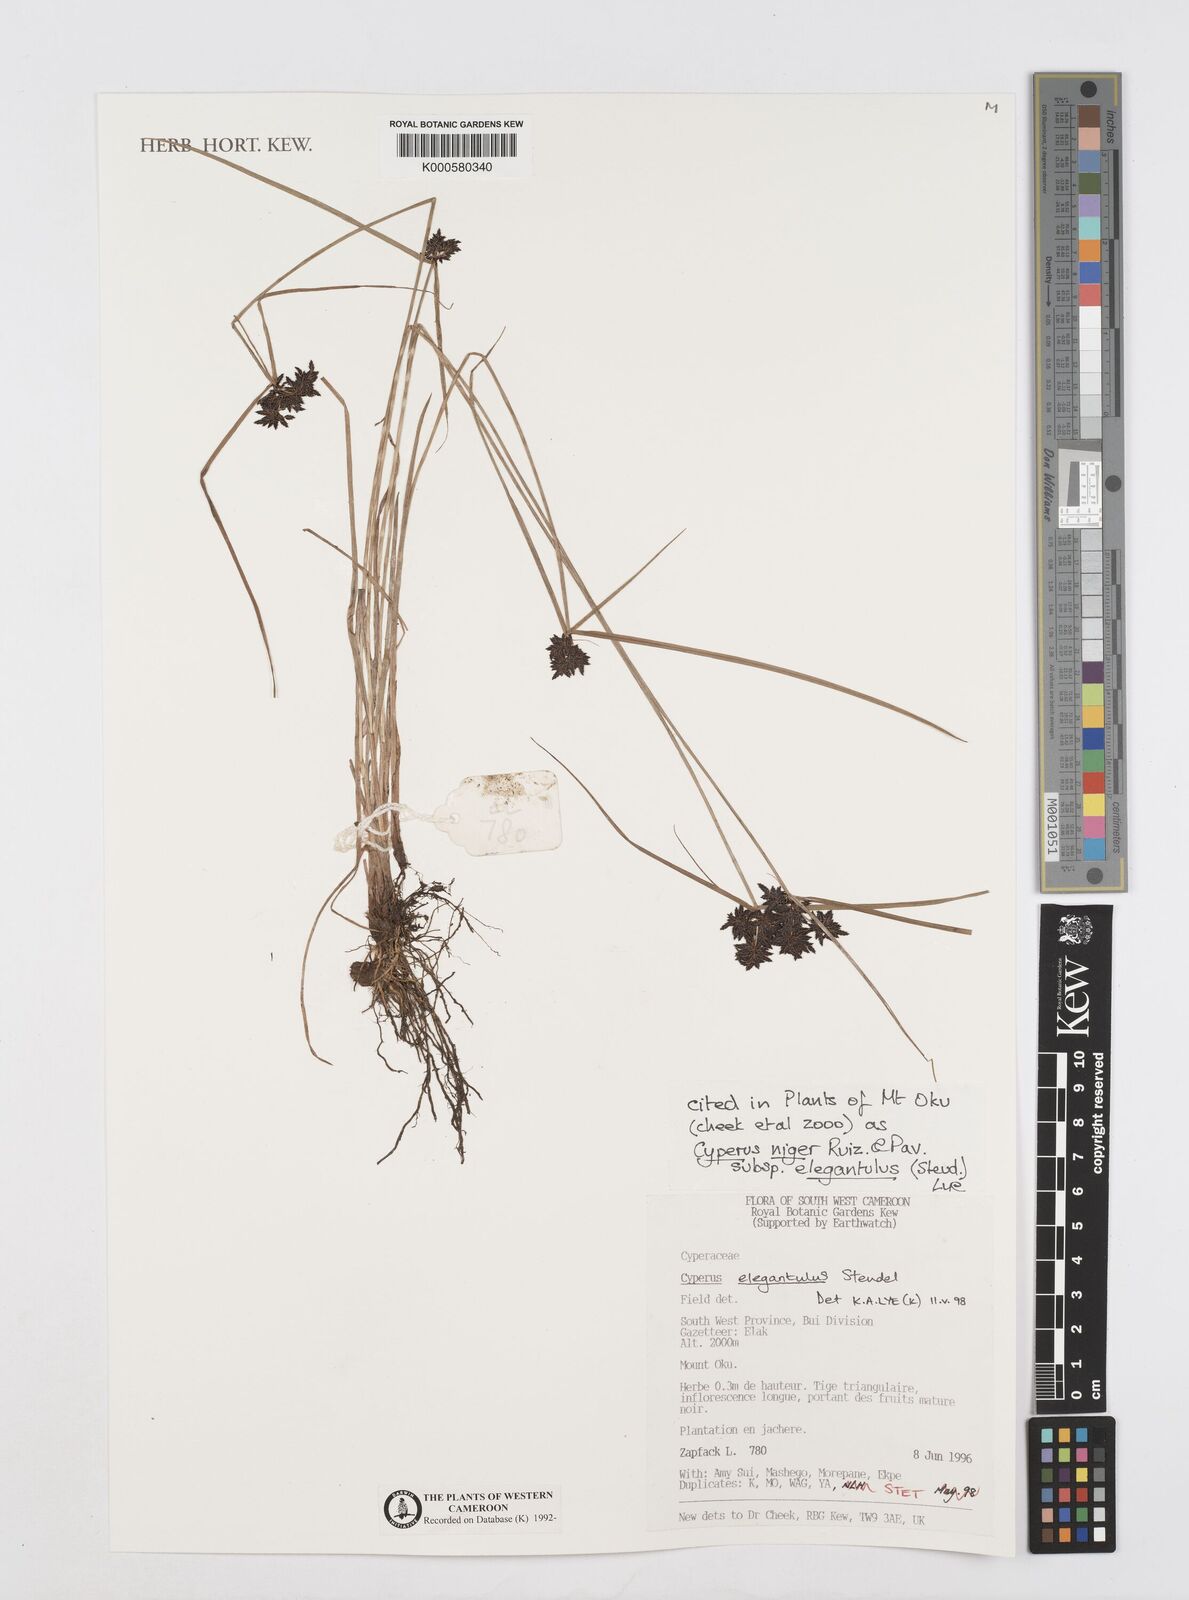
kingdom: Plantae
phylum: Tracheophyta
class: Liliopsida
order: Poales
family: Cyperaceae
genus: Cyperus
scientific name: Cyperus elegantulus
